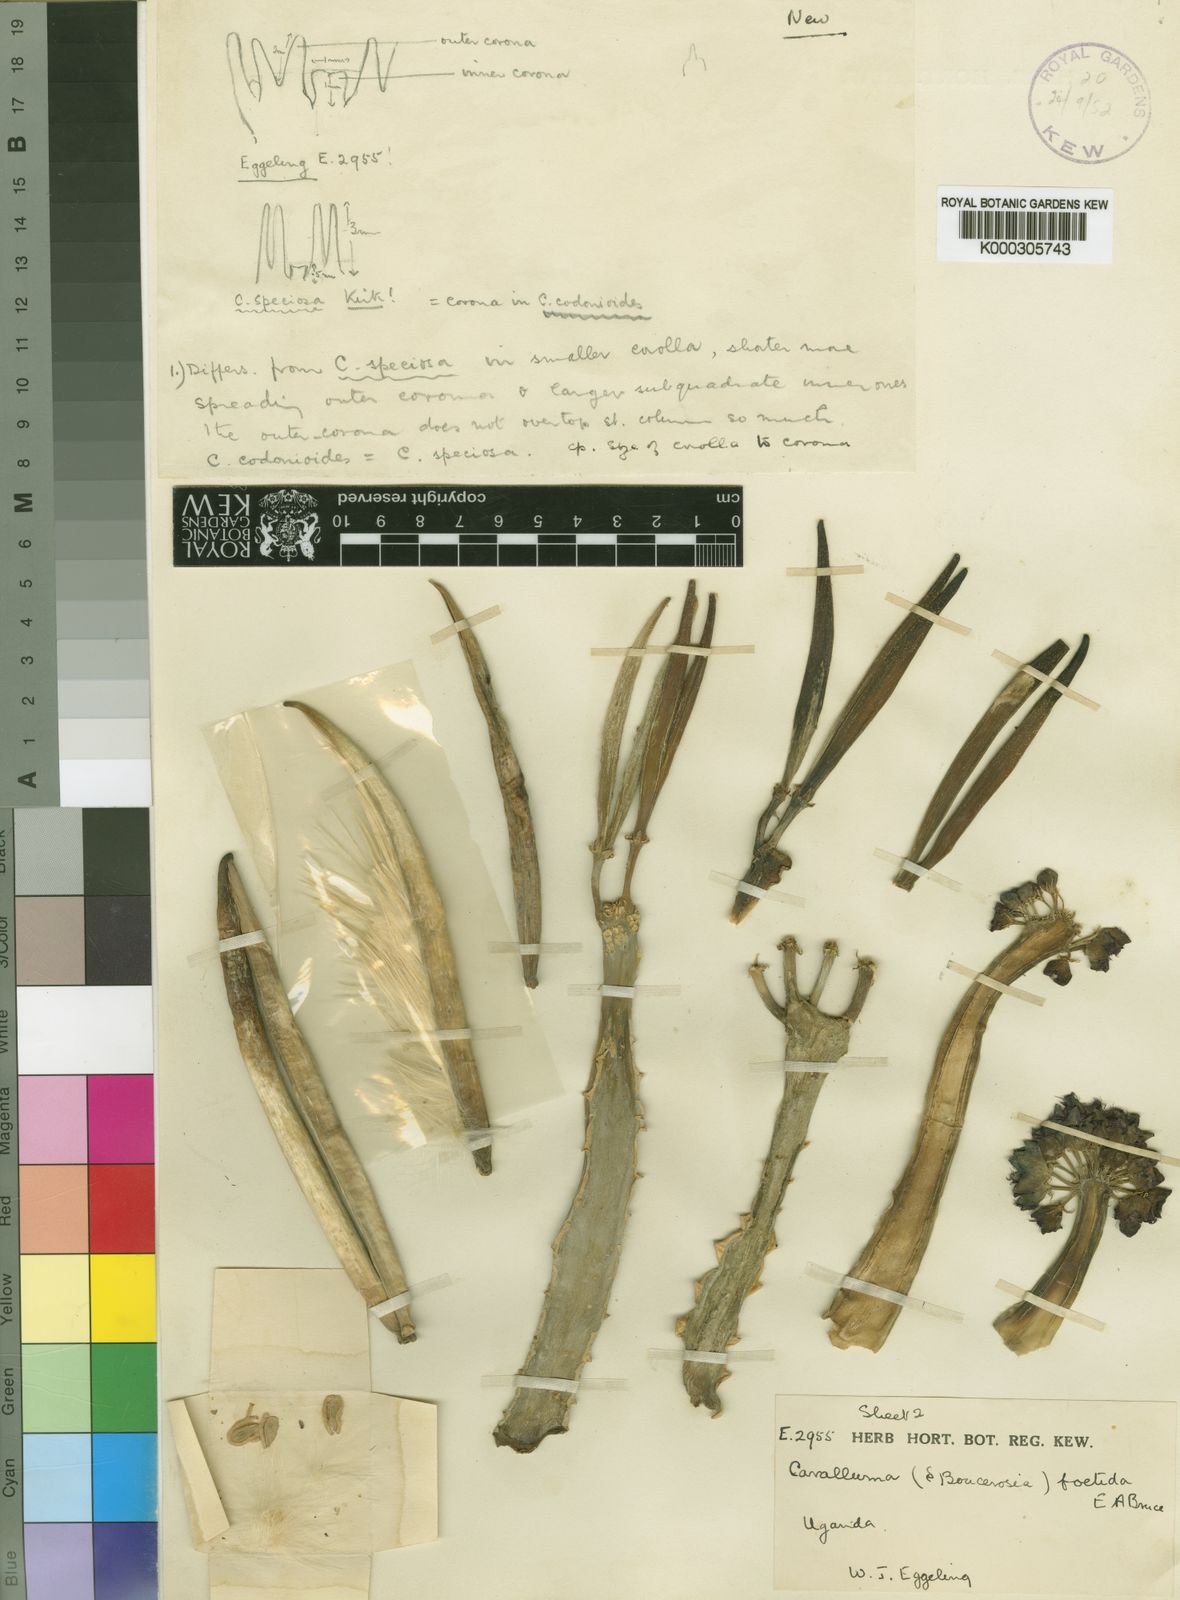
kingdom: Plantae
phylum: Tracheophyta
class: Magnoliopsida
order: Gentianales
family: Apocynaceae
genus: Ceropegia
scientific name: Ceropegia foetida
